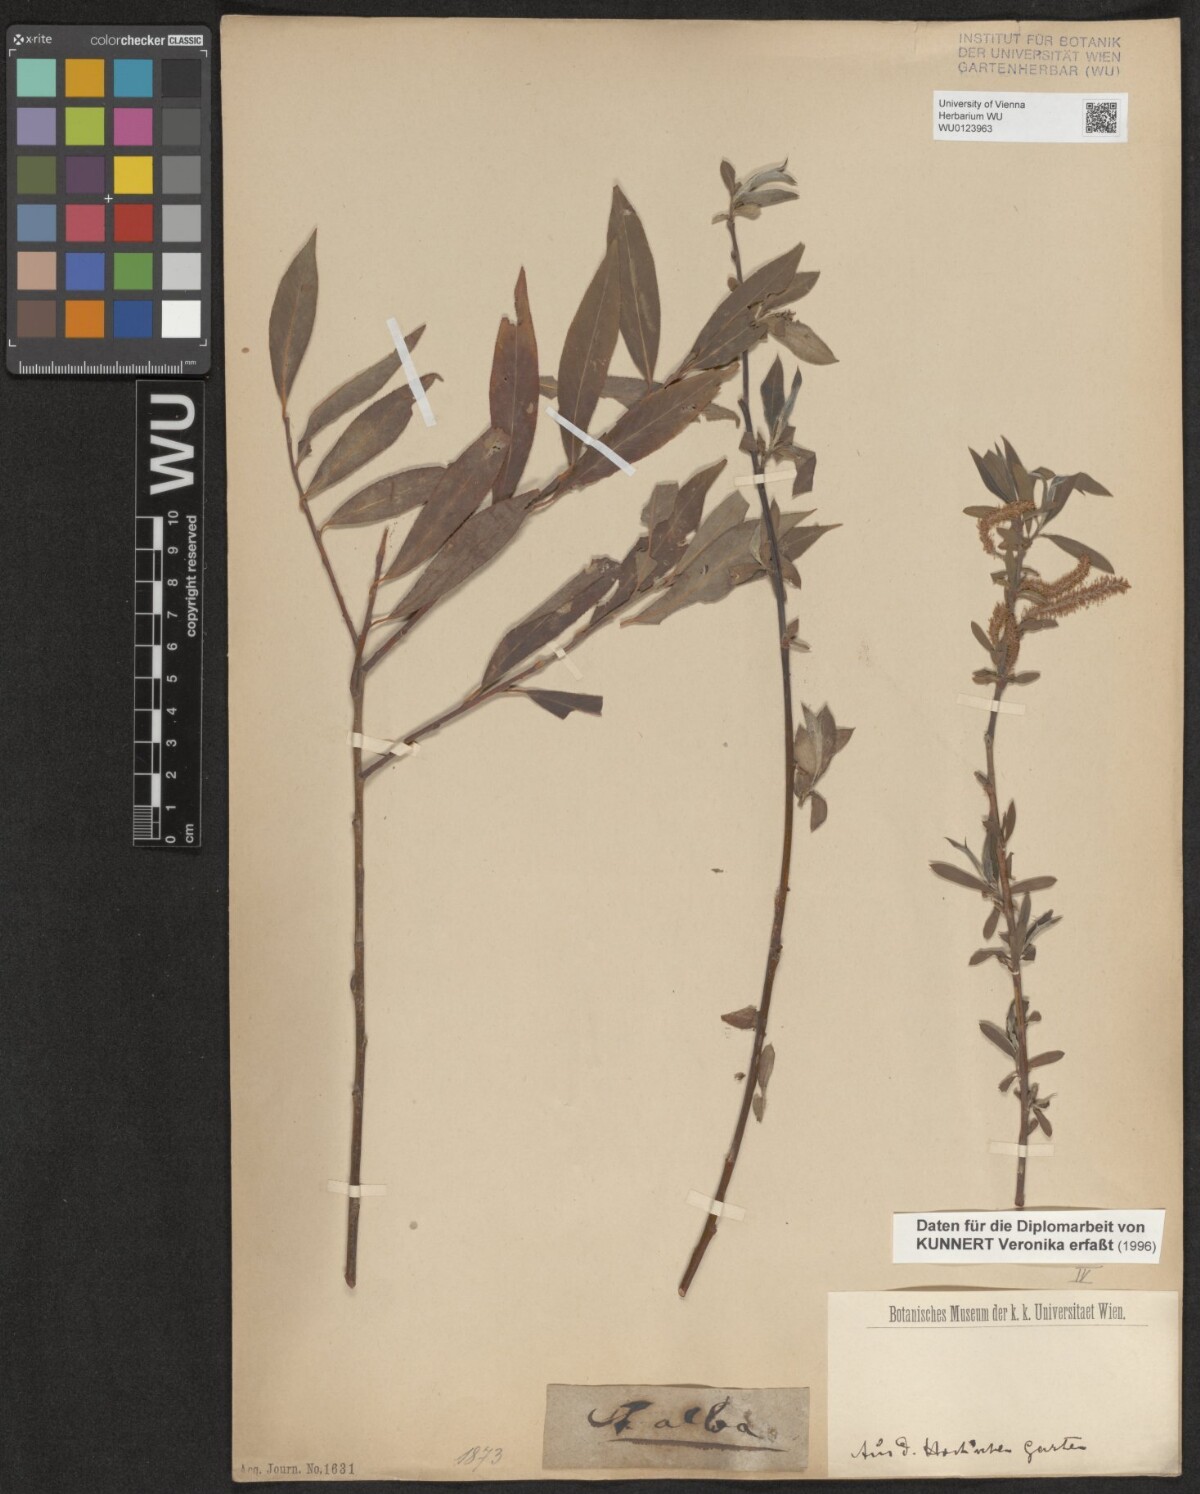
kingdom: Plantae
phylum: Tracheophyta
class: Magnoliopsida
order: Malpighiales
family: Salicaceae
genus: Salix
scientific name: Salix alba
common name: White willow
